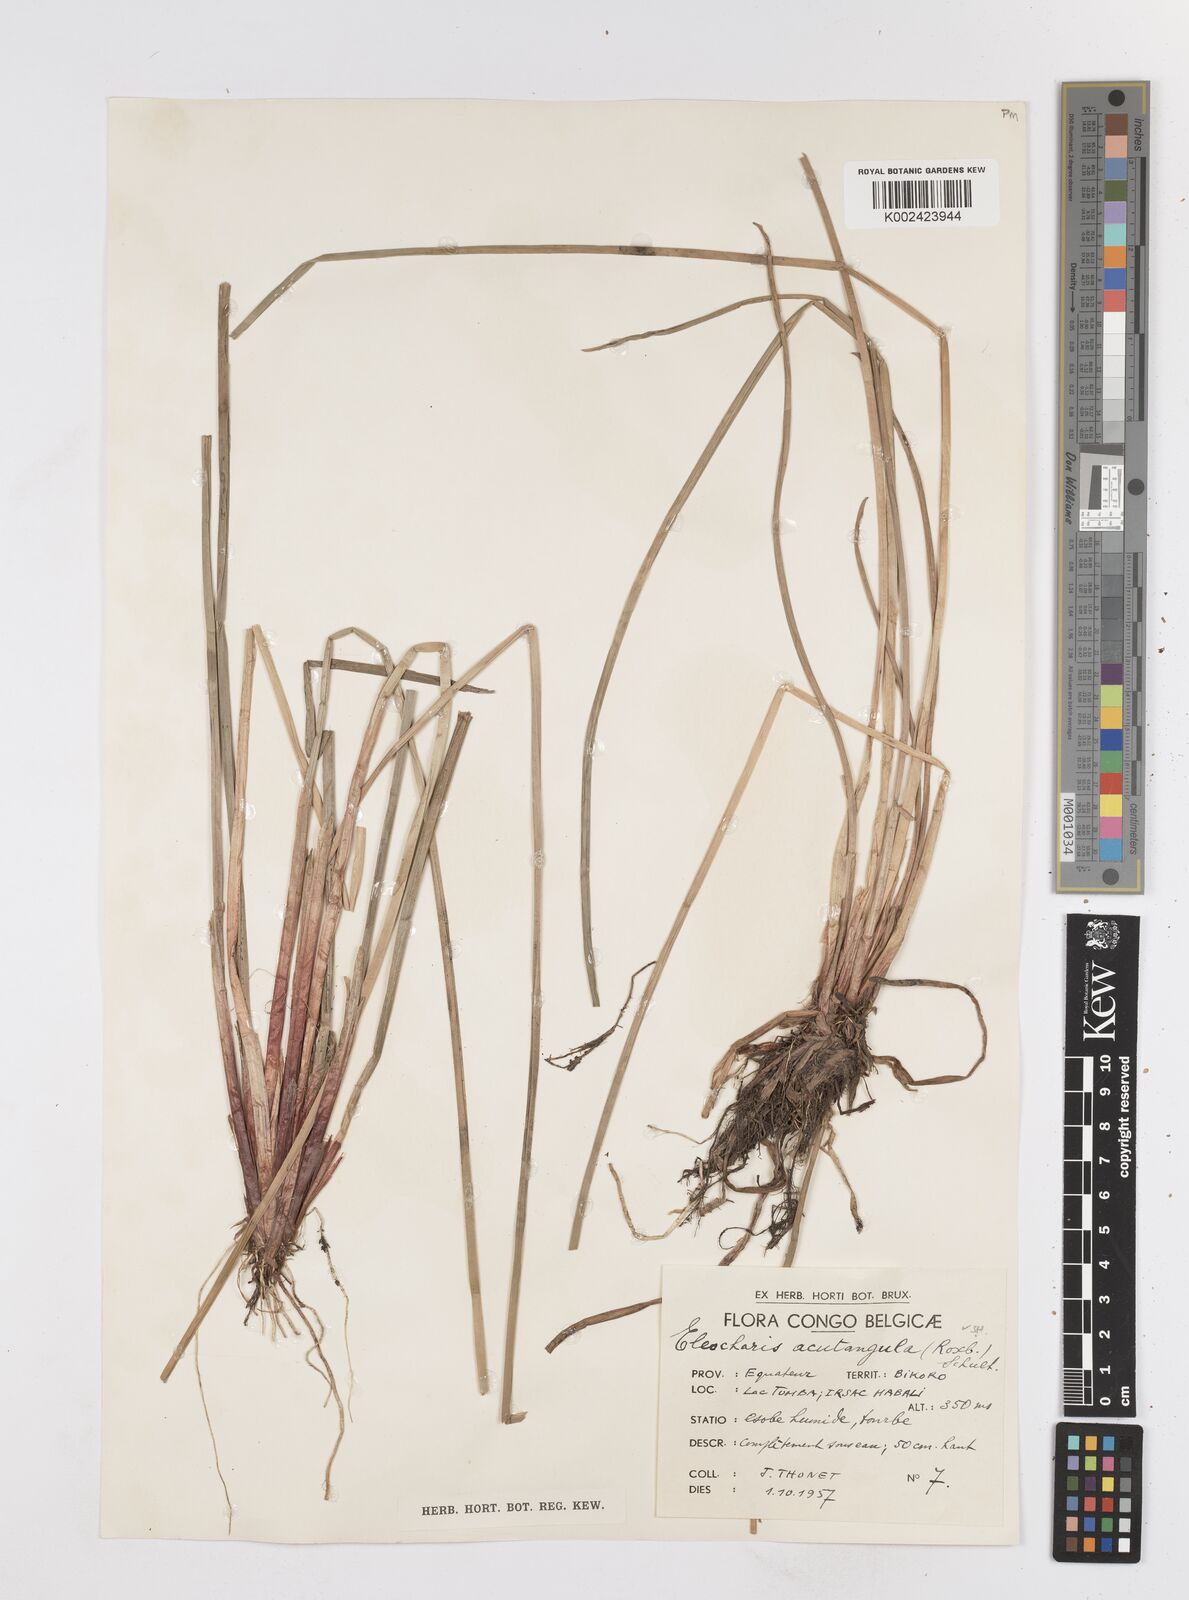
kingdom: Plantae
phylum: Tracheophyta
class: Liliopsida
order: Poales
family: Cyperaceae
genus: Eleocharis
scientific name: Eleocharis acutangula
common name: Acute spikerush
